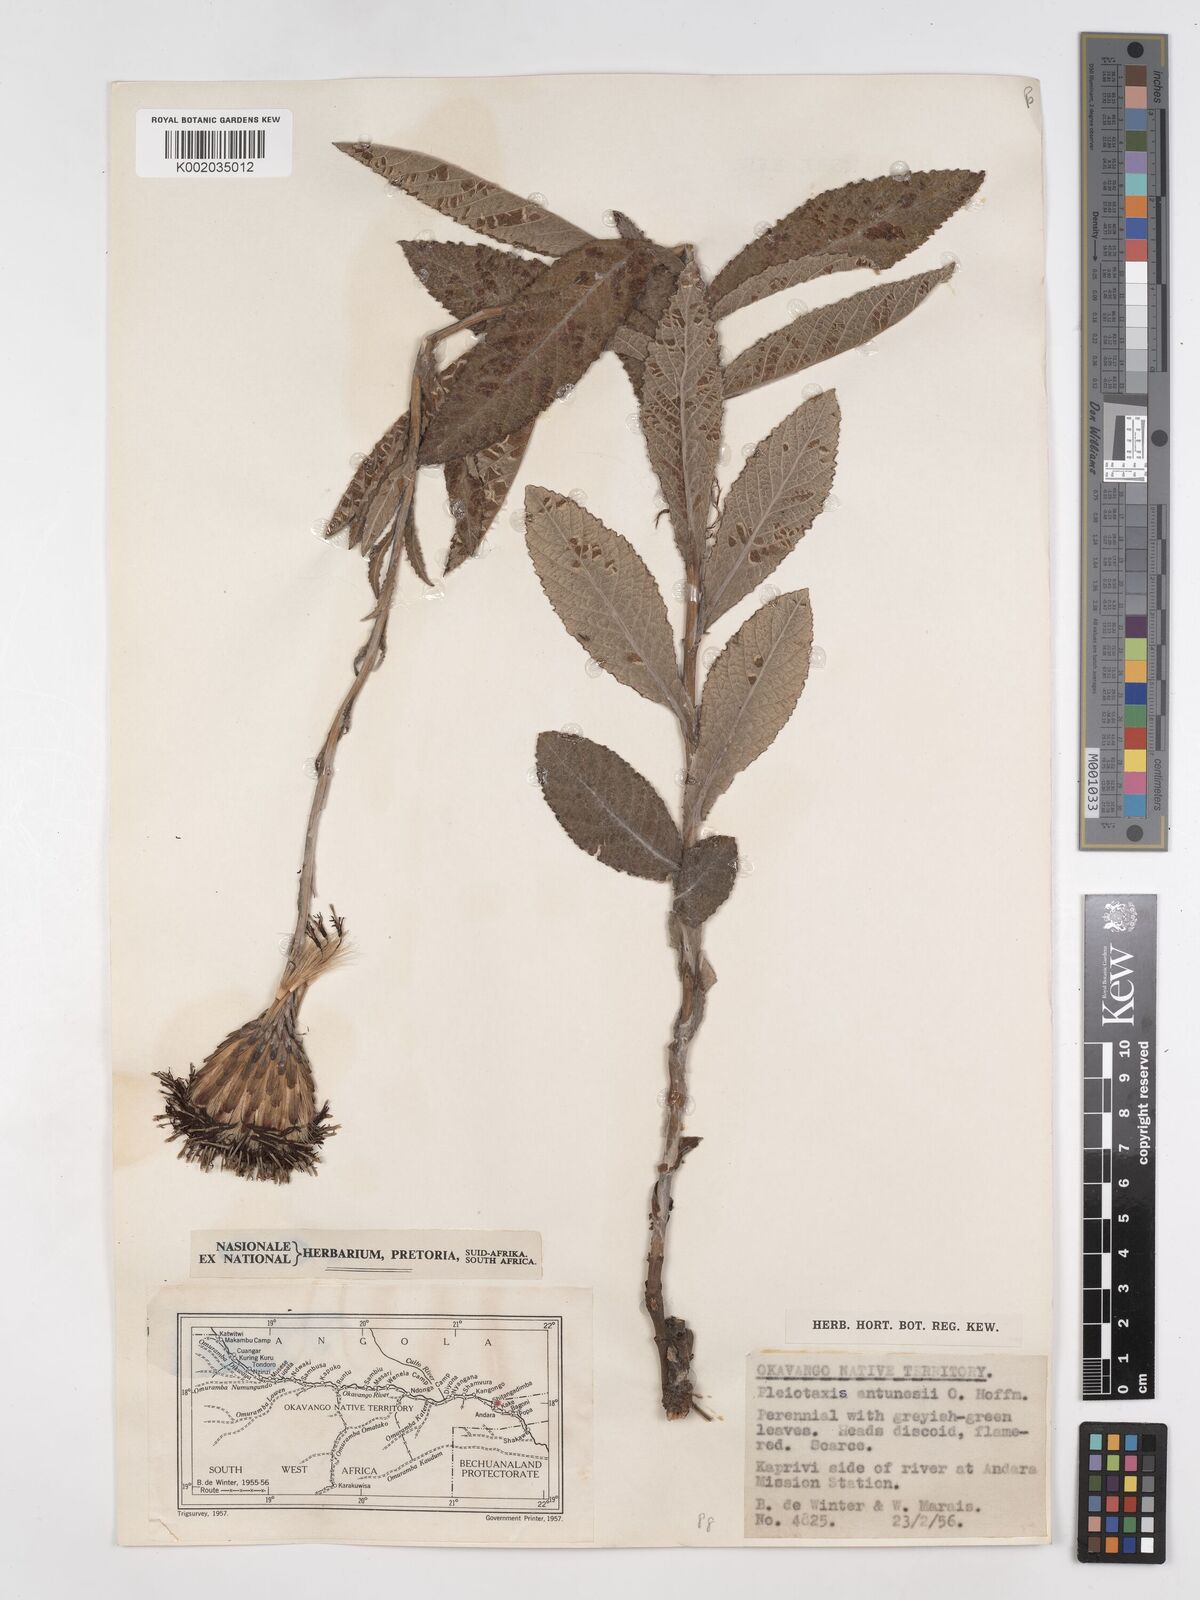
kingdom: Plantae
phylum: Tracheophyta
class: Magnoliopsida
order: Asterales
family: Asteraceae
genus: Pleiotaxis
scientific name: Pleiotaxis antunesii
